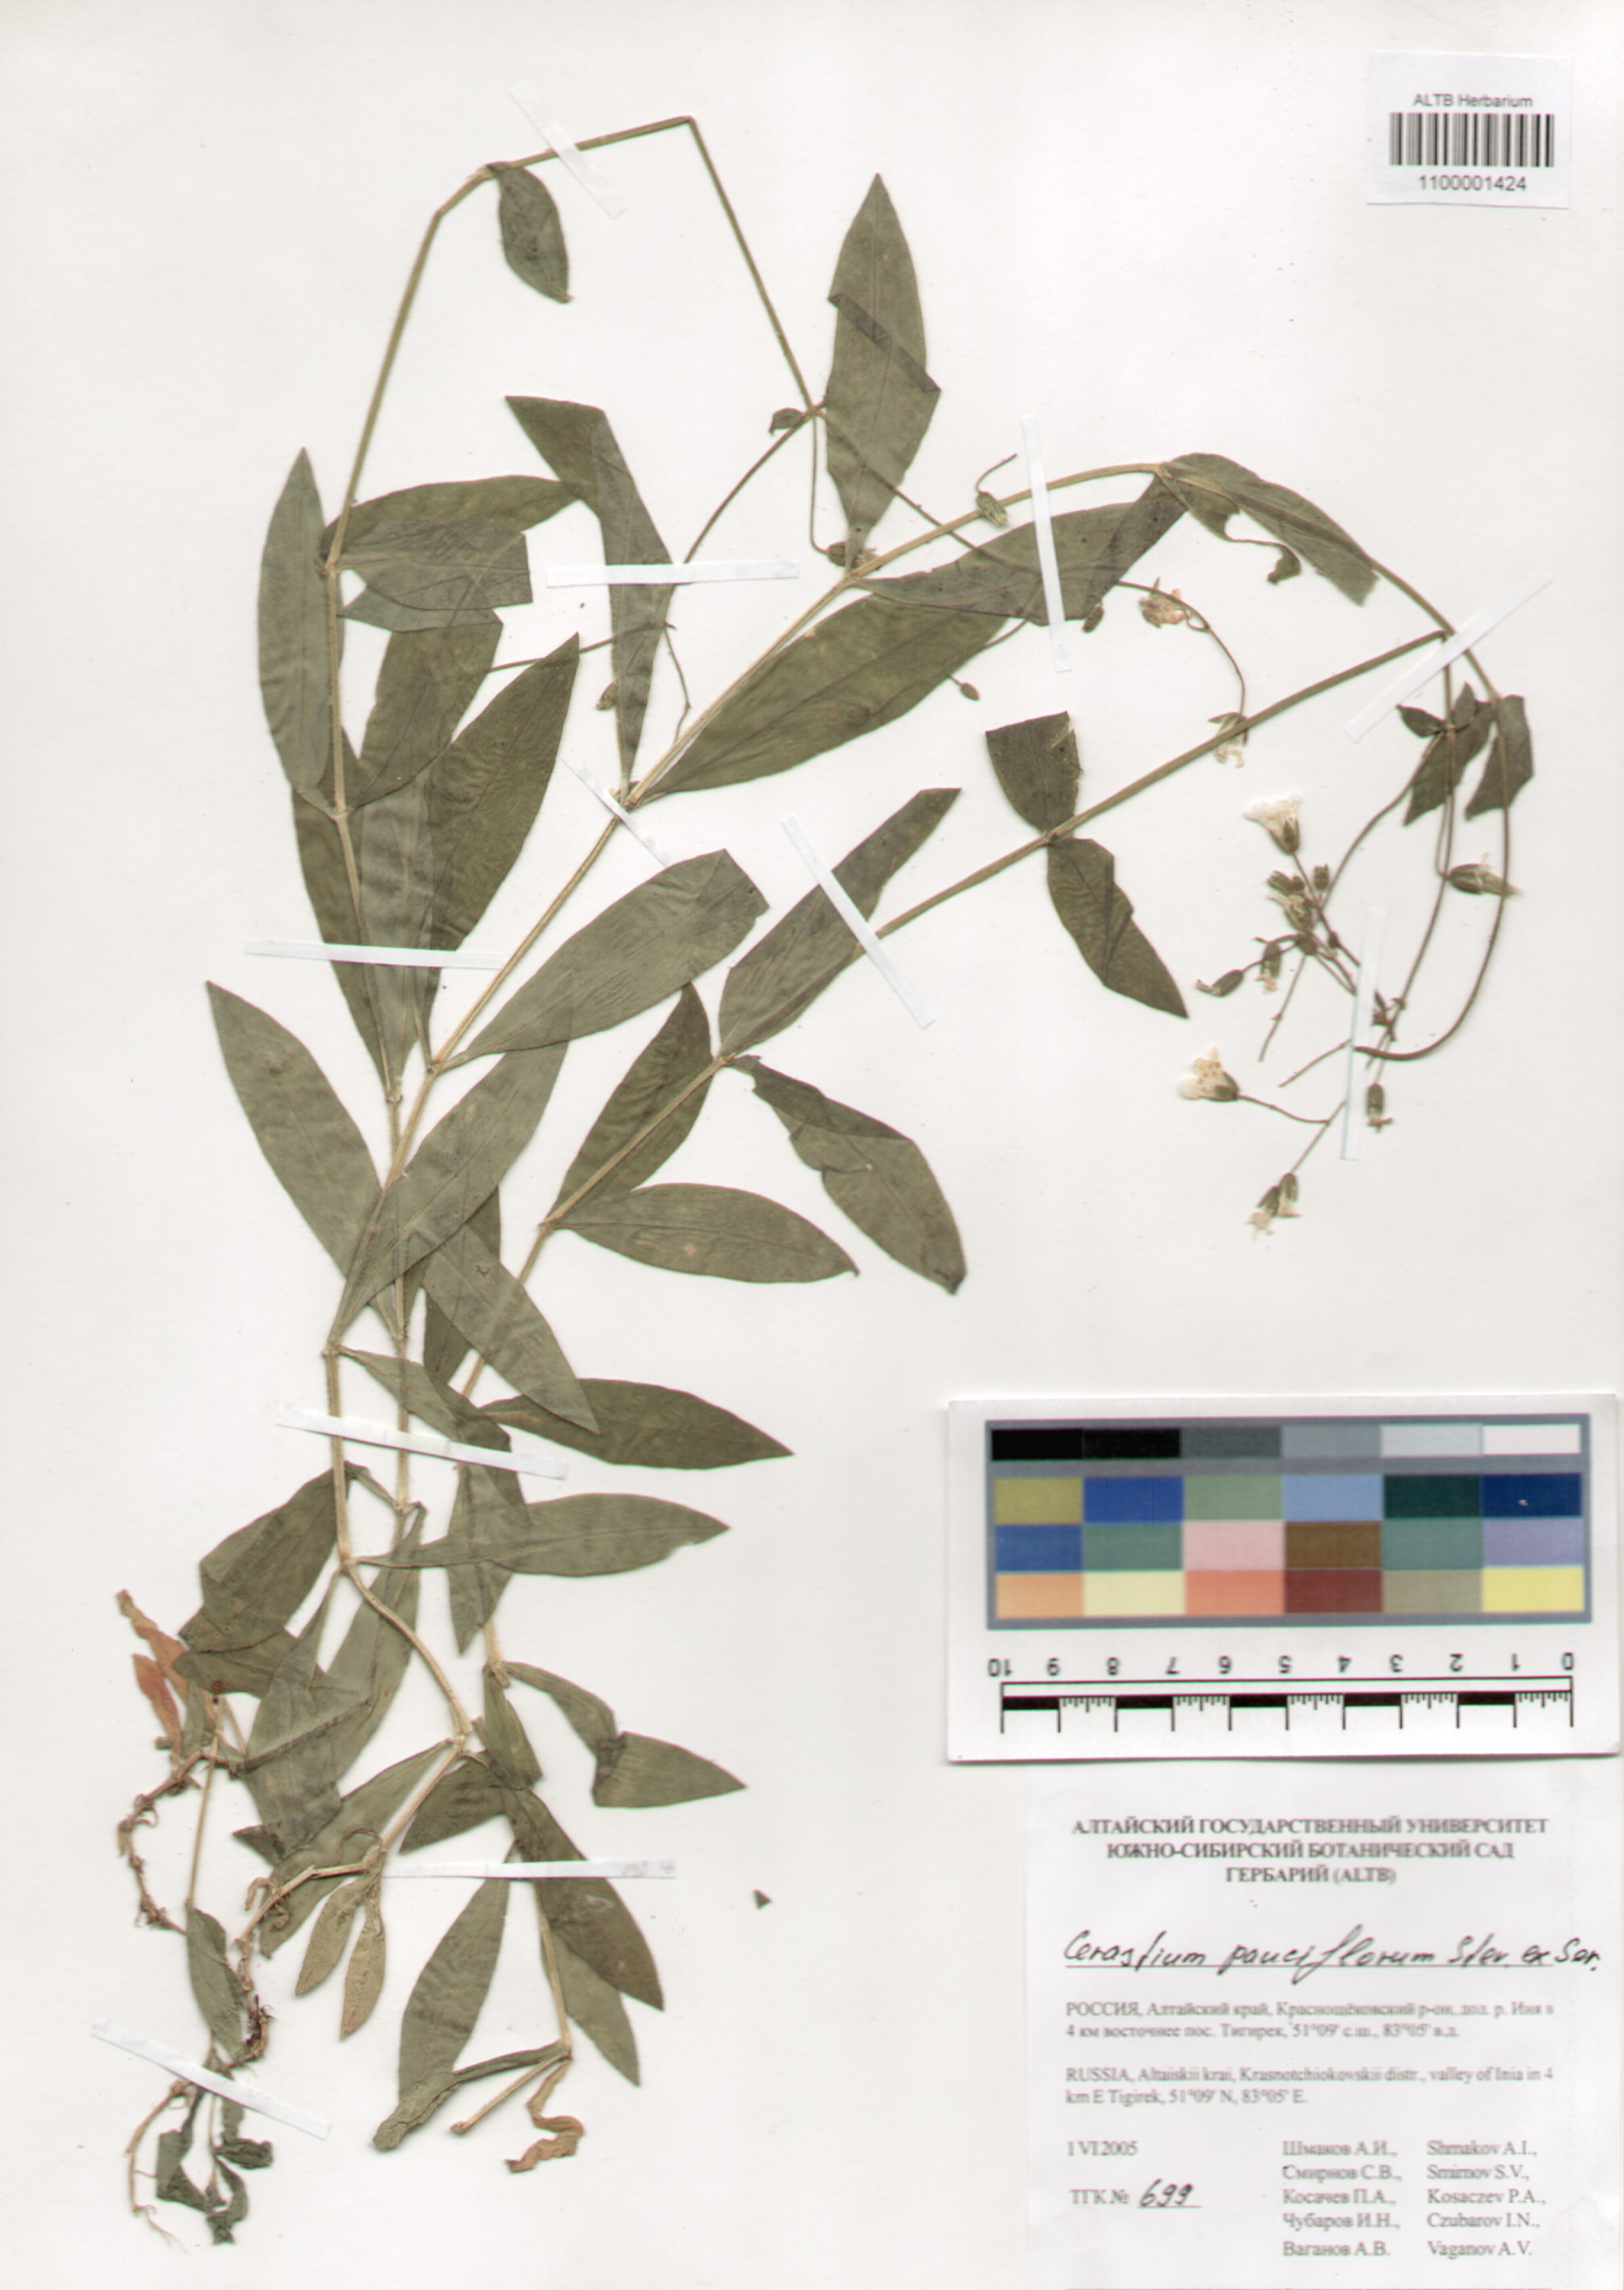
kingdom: Plantae
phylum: Tracheophyta
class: Magnoliopsida
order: Caryophyllales
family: Caryophyllaceae
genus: Cerastium
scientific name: Cerastium pauciflorum
